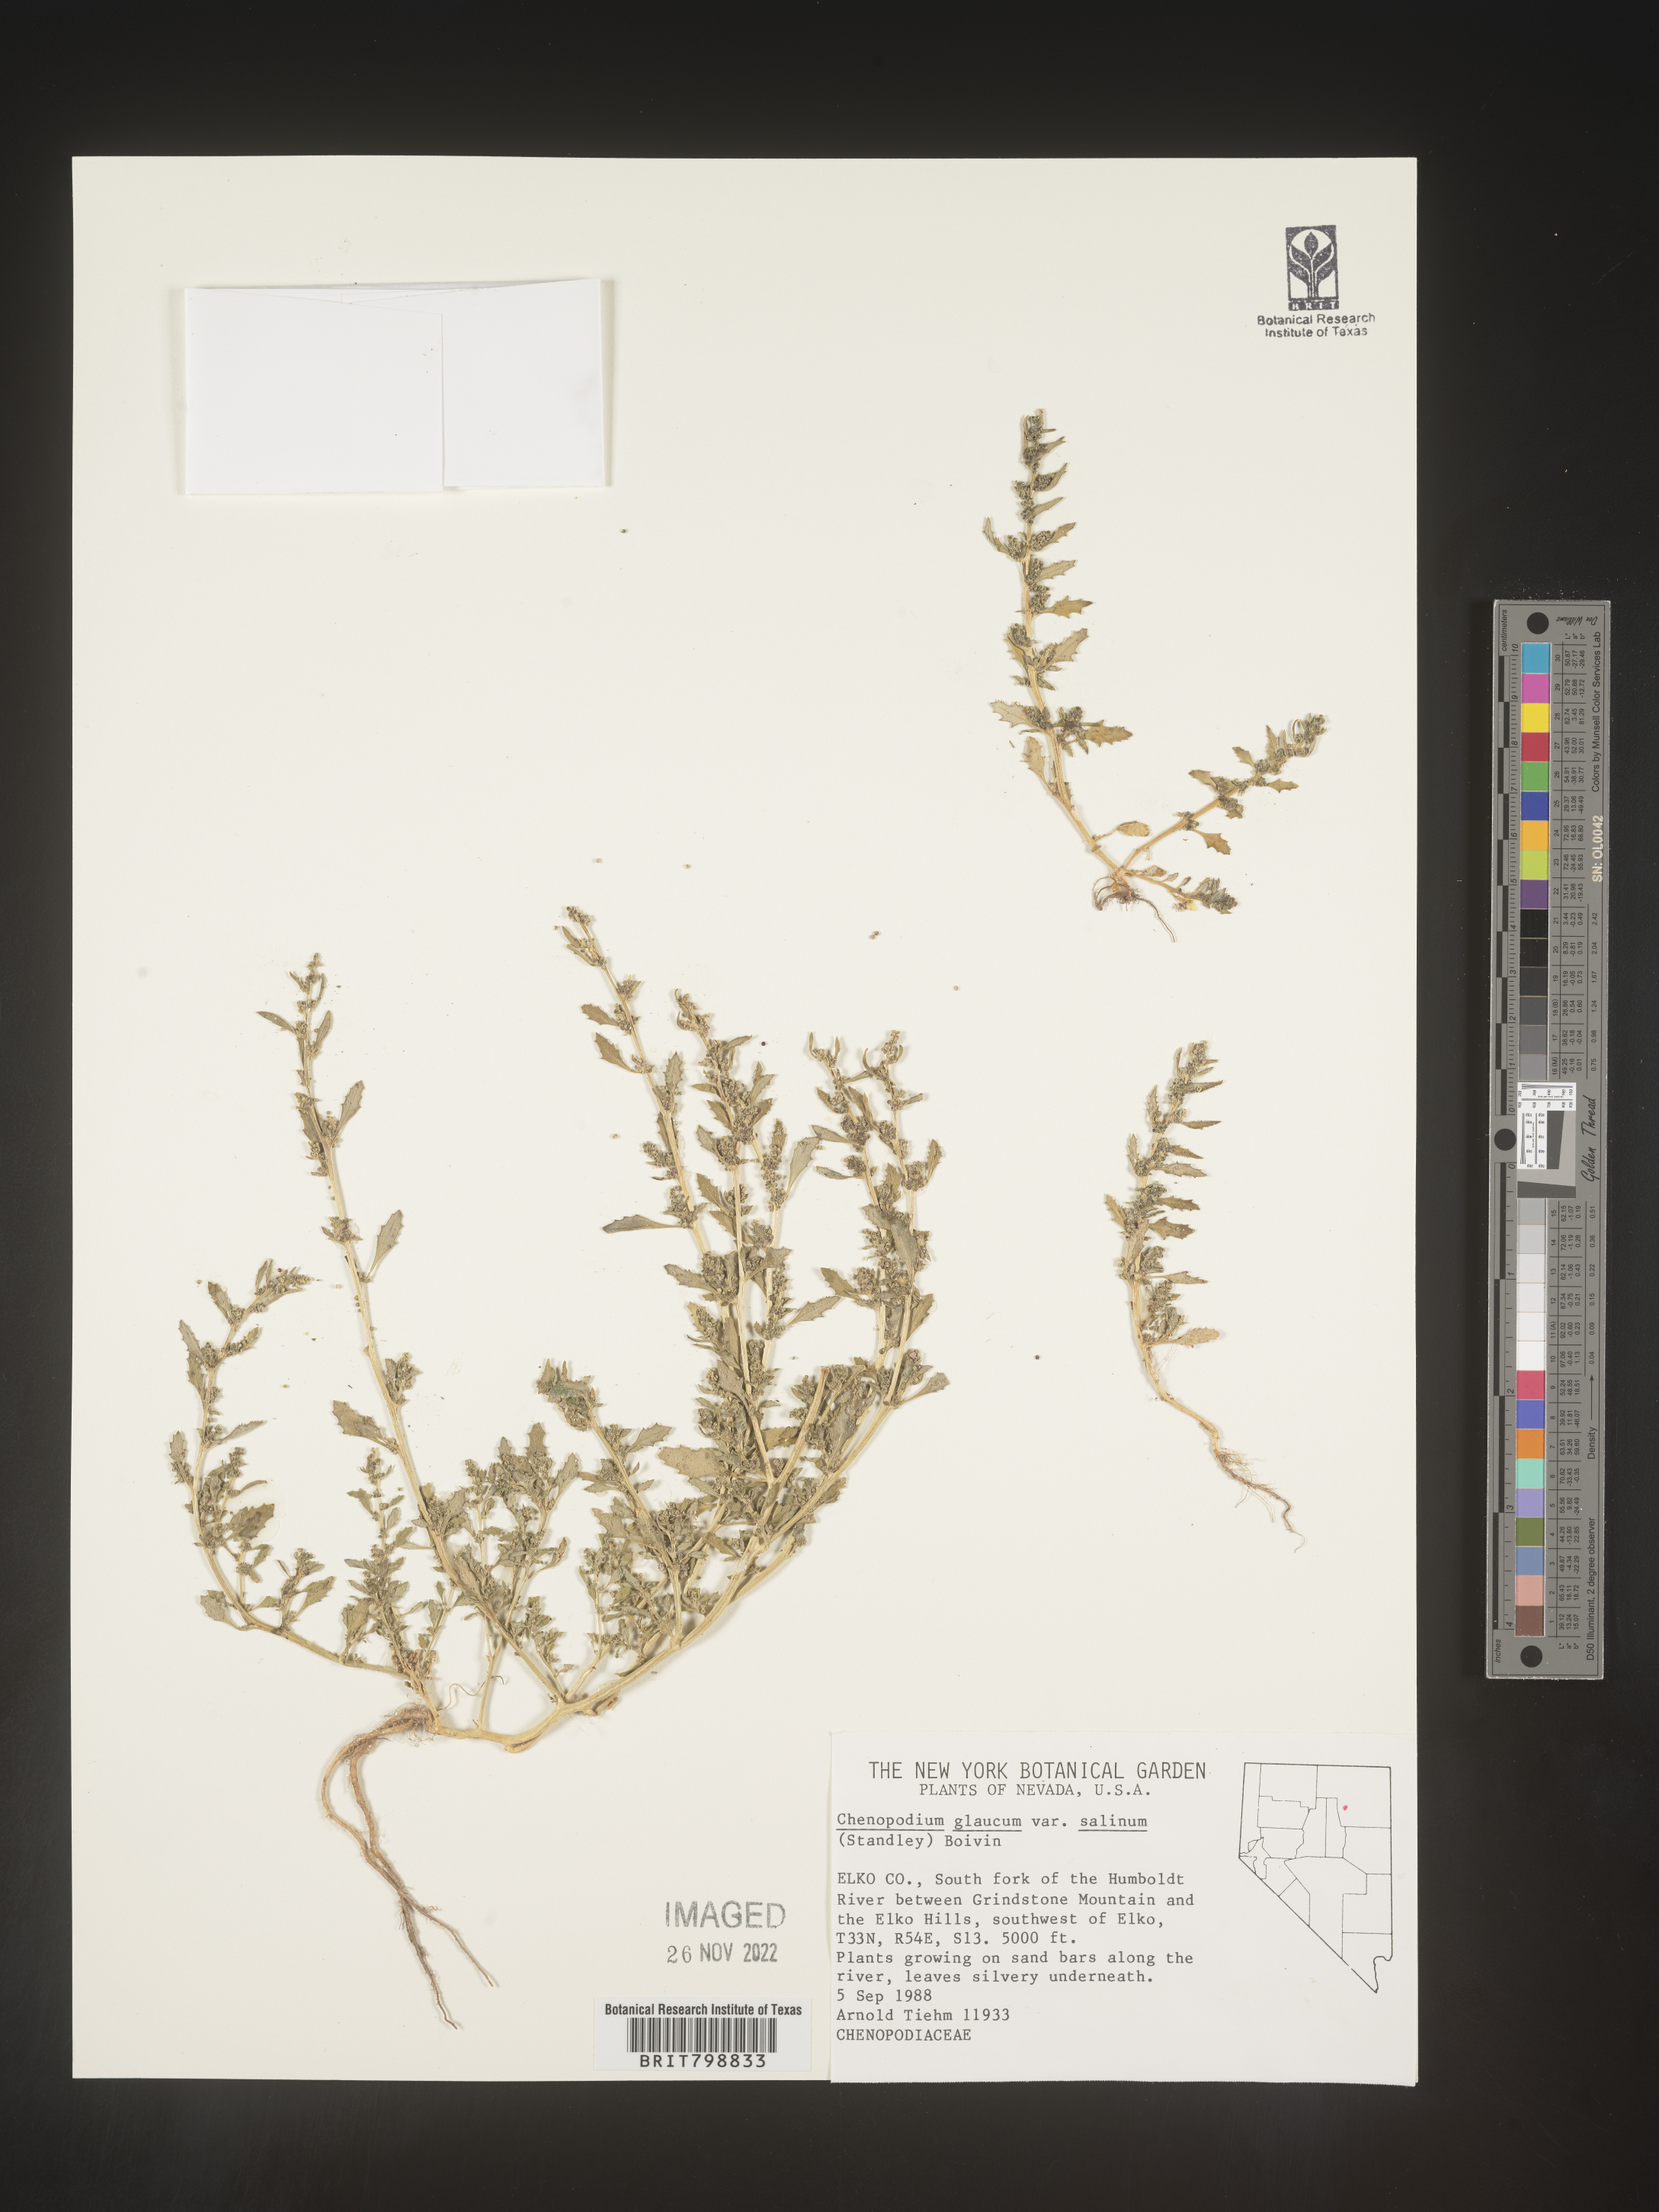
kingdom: Plantae
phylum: Tracheophyta
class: Magnoliopsida
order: Caryophyllales
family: Amaranthaceae
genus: Oxybasis
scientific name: Oxybasis glauca
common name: Glaucous goosefoot
